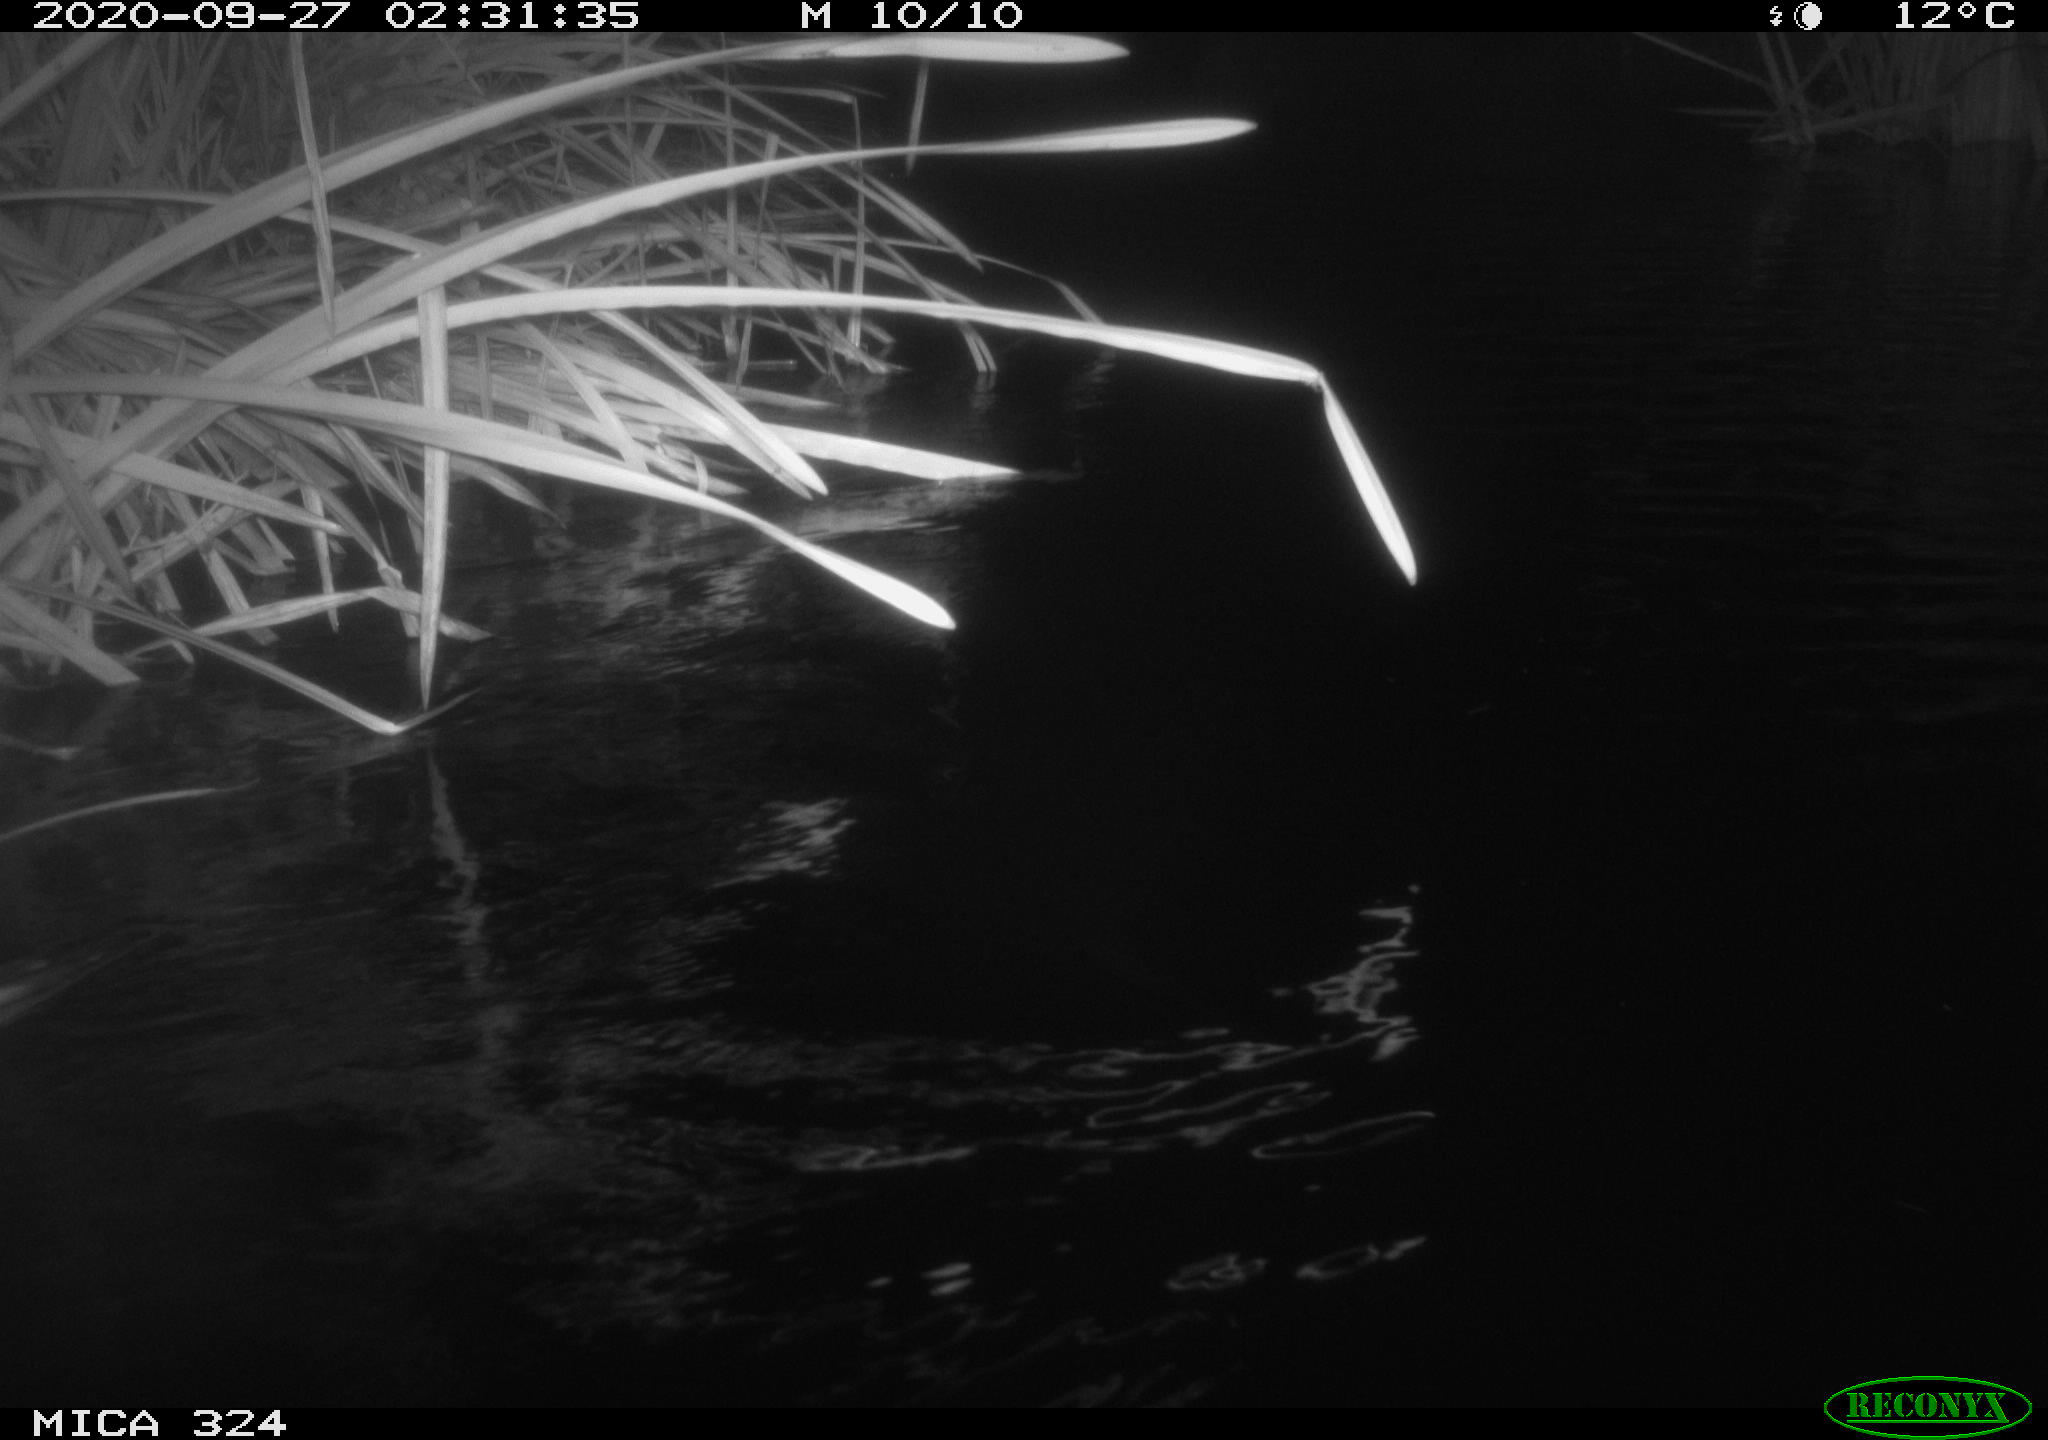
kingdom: Animalia
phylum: Chordata
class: Mammalia
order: Rodentia
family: Cricetidae
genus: Ondatra
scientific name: Ondatra zibethicus
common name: Muskrat
